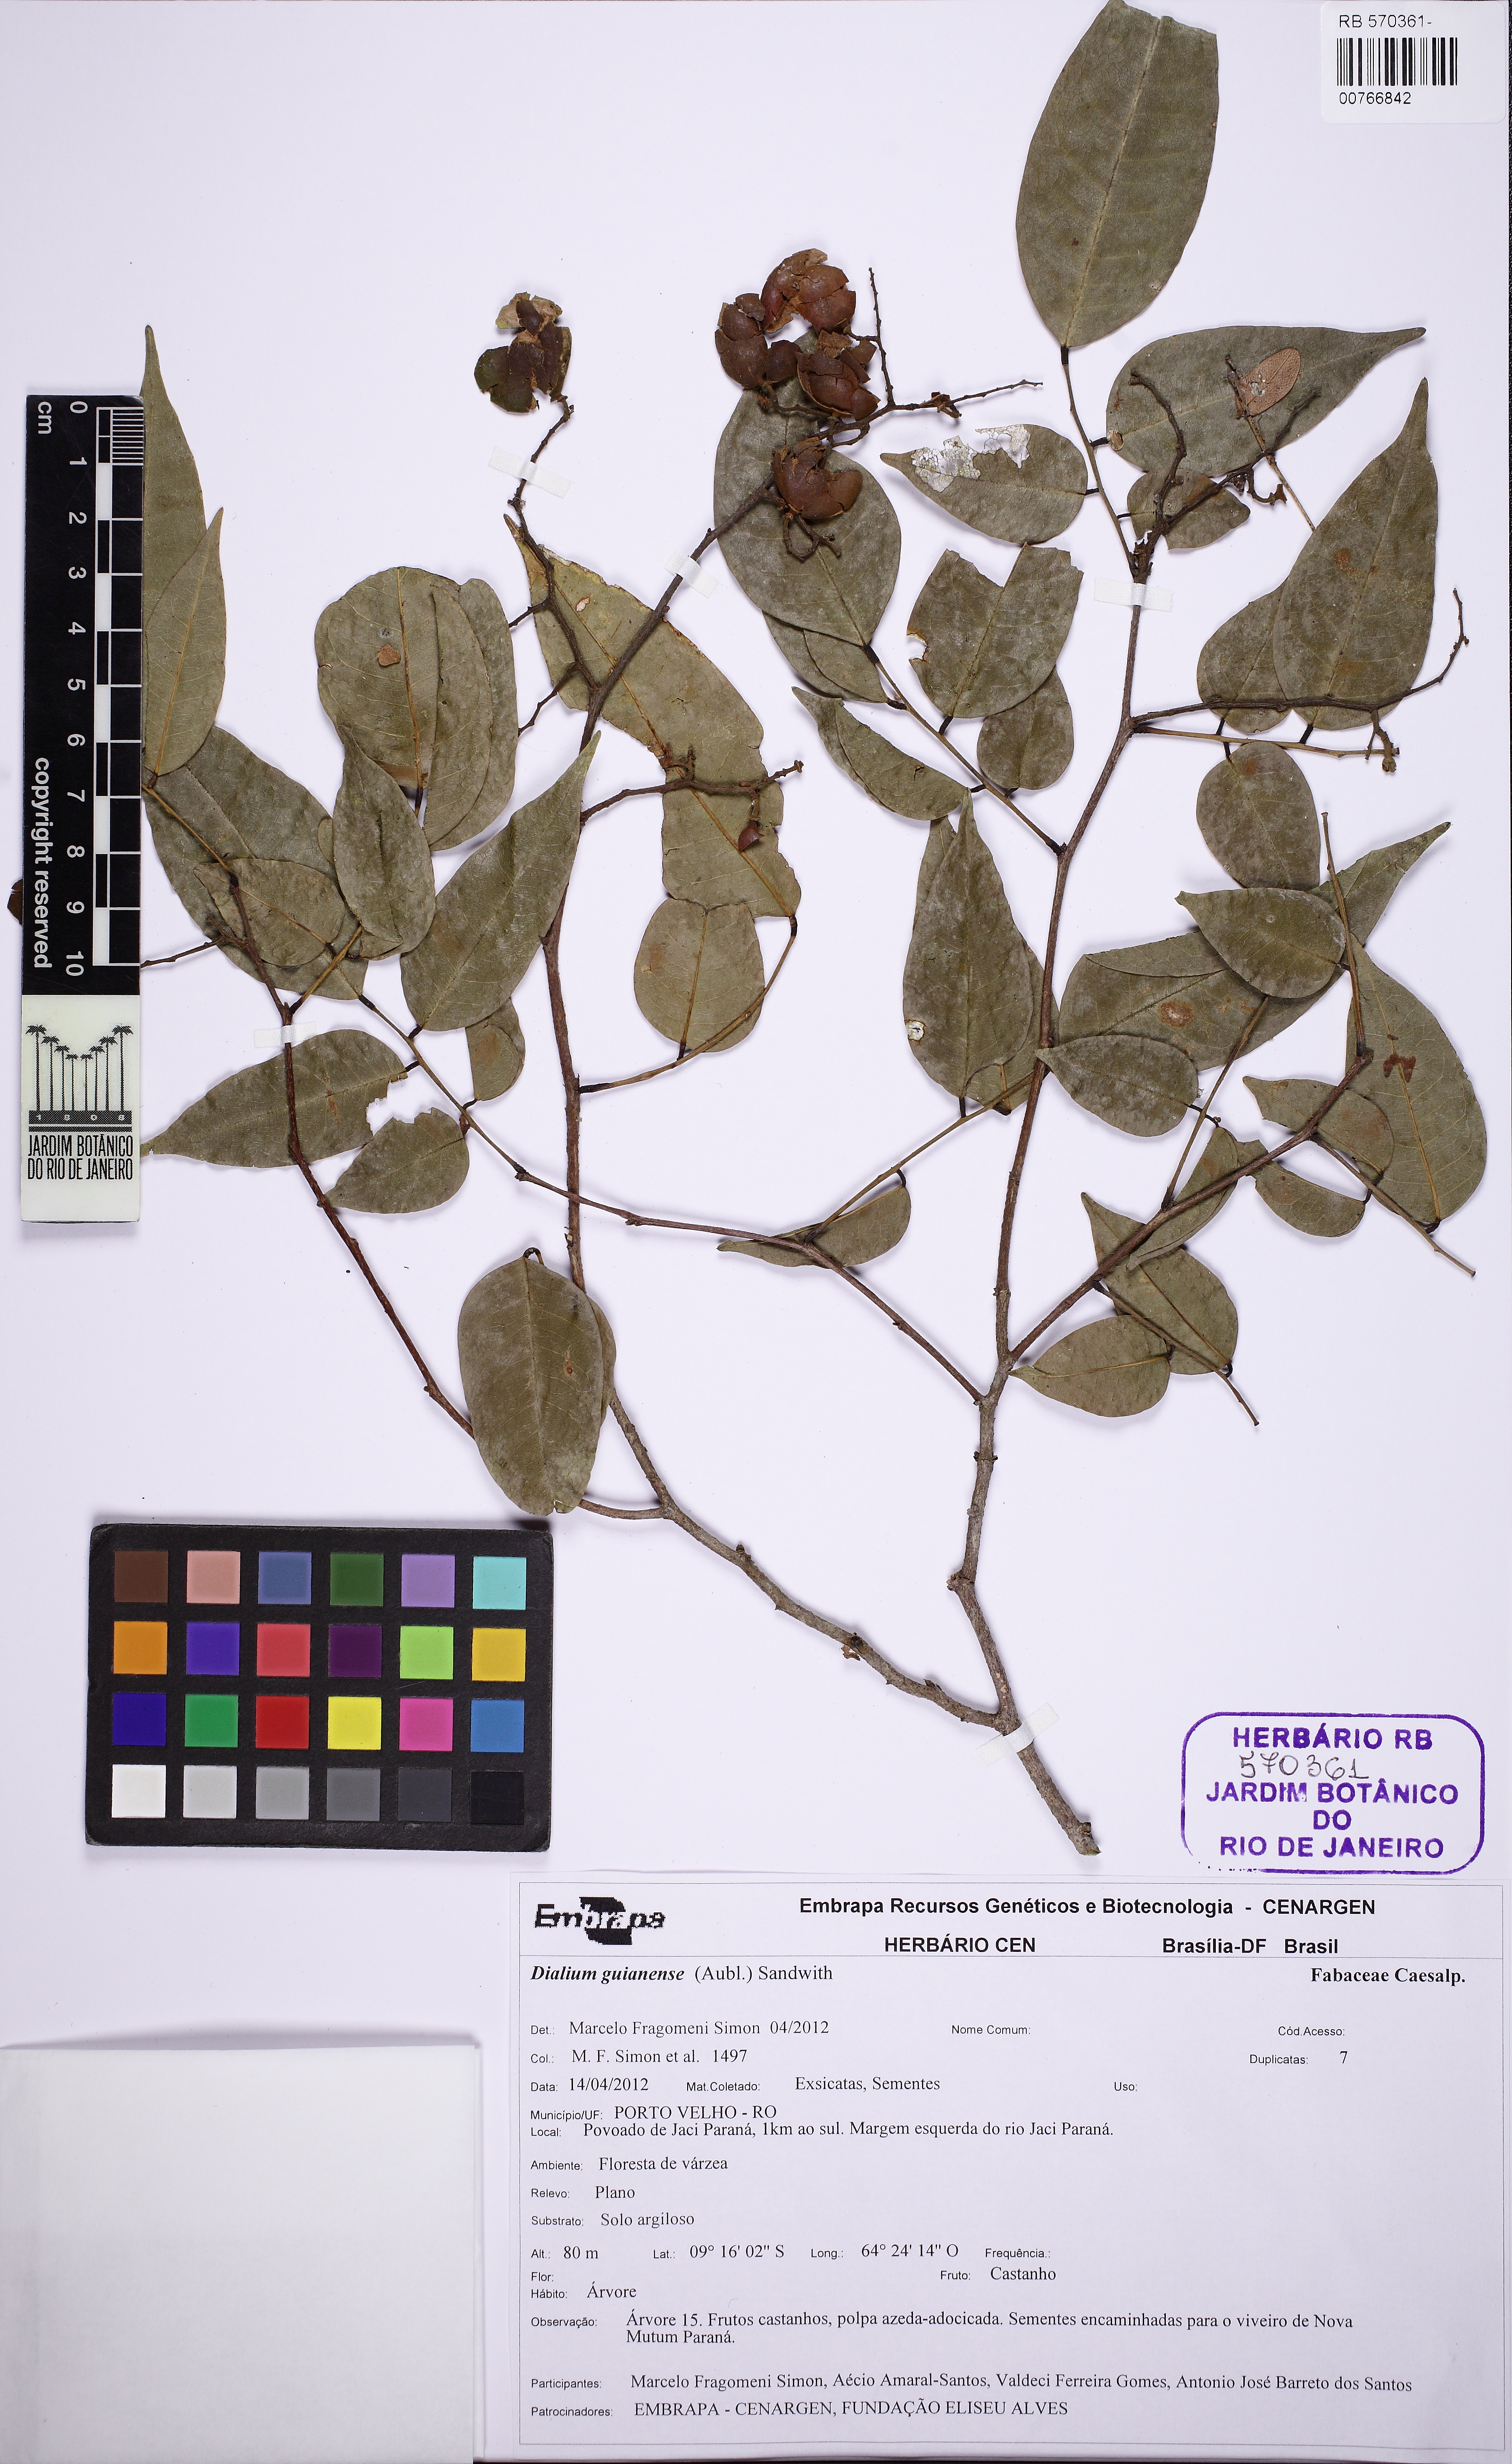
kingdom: Plantae
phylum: Tracheophyta
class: Magnoliopsida
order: Fabales
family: Fabaceae
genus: Dialium
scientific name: Dialium guianense
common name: Ironwood
